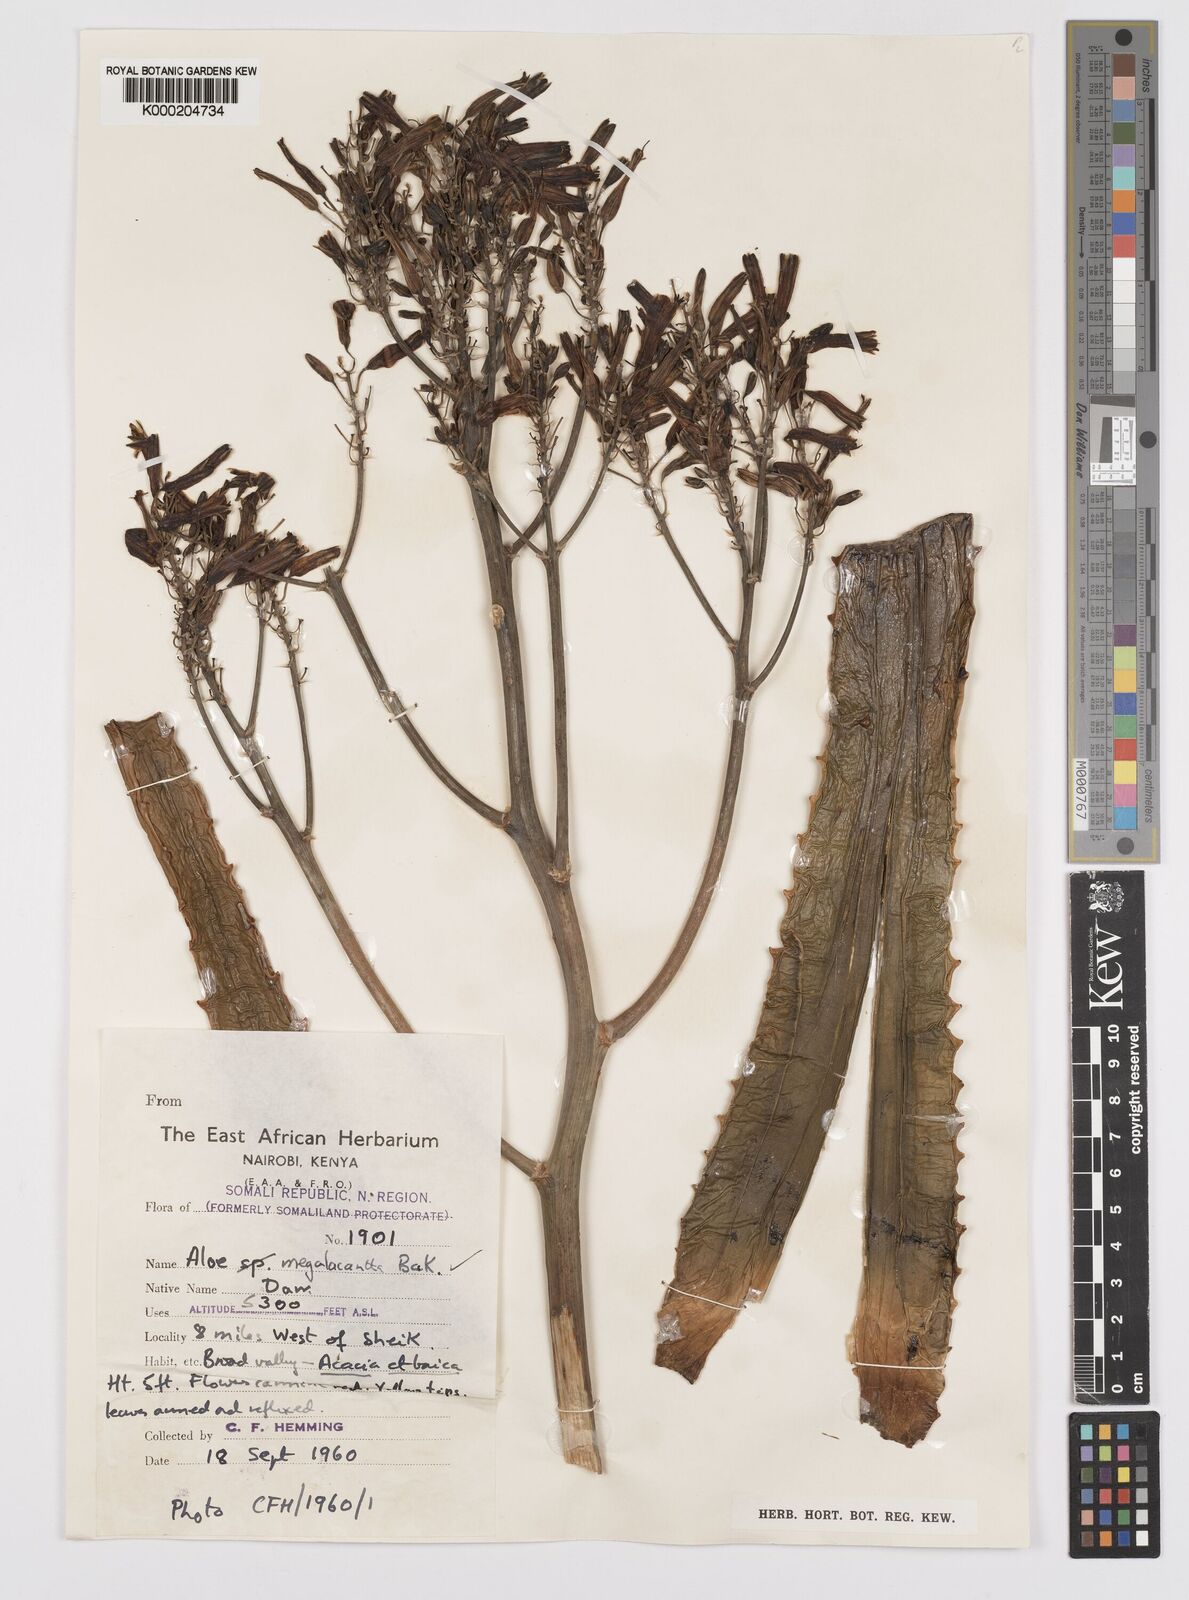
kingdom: Plantae
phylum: Tracheophyta
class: Liliopsida
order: Asparagales
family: Asphodelaceae
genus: Aloe
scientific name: Aloe megalacantha
